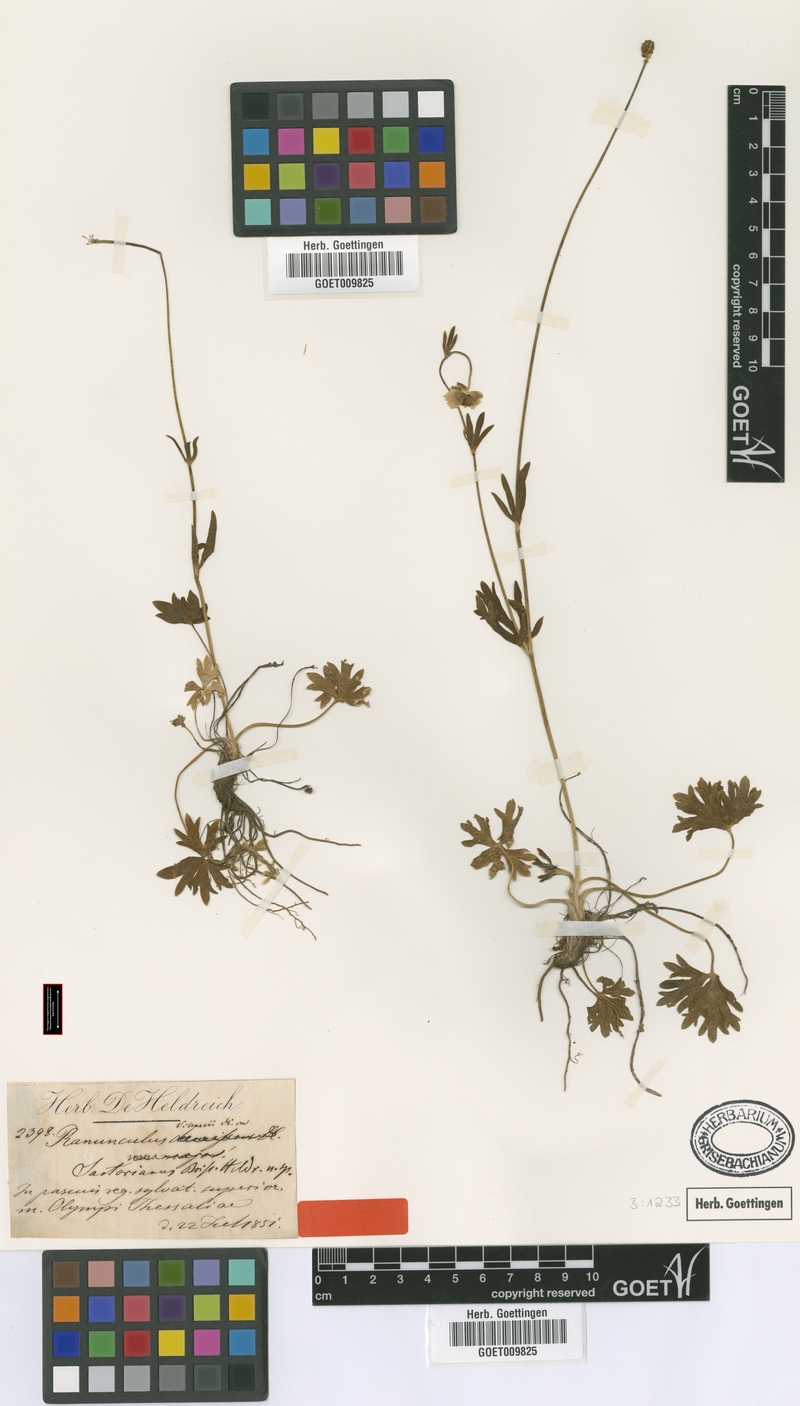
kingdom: Plantae
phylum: Tracheophyta
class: Magnoliopsida
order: Ranunculales
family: Ranunculaceae
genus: Ranunculus
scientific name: Ranunculus sartorianus
